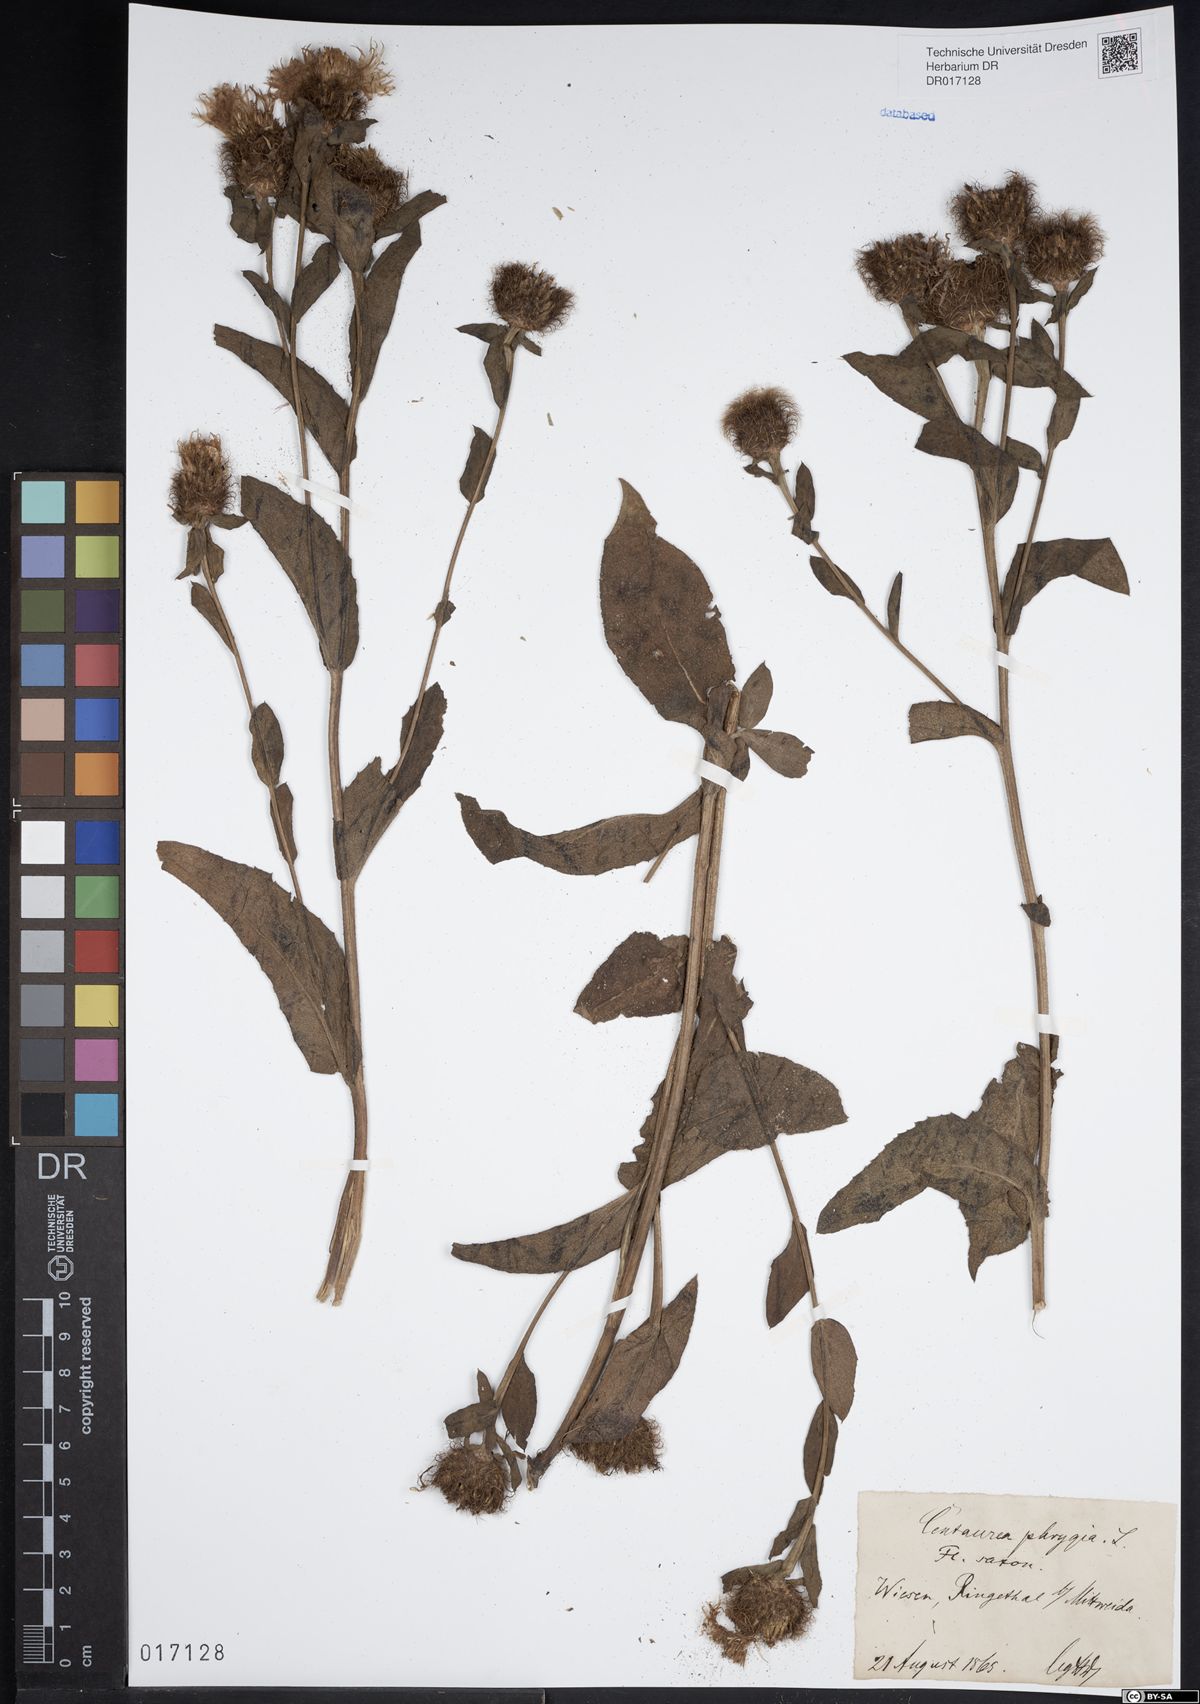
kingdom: Plantae
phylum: Tracheophyta
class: Magnoliopsida
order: Asterales
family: Asteraceae
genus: Centaurea
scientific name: Centaurea pseudophrygia
